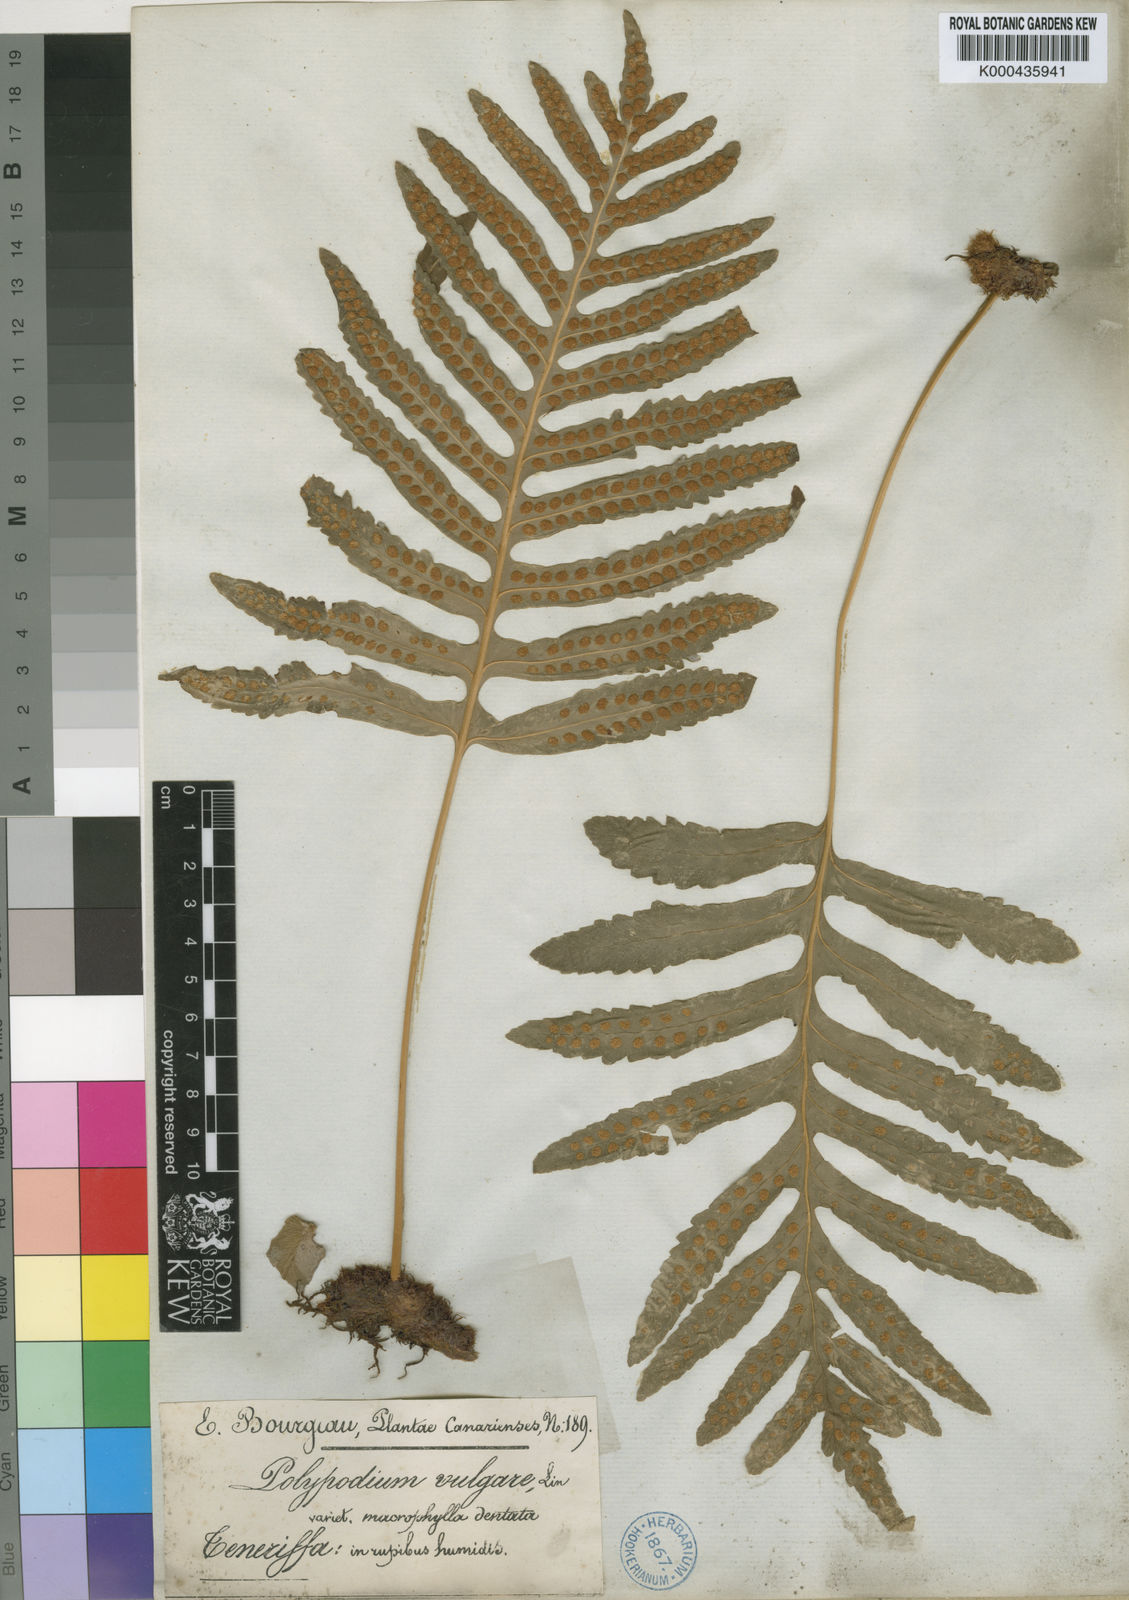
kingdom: Plantae
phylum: Tracheophyta
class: Polypodiopsida
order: Polypodiales
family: Polypodiaceae
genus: Polypodium
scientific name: Polypodium macaronesicum
